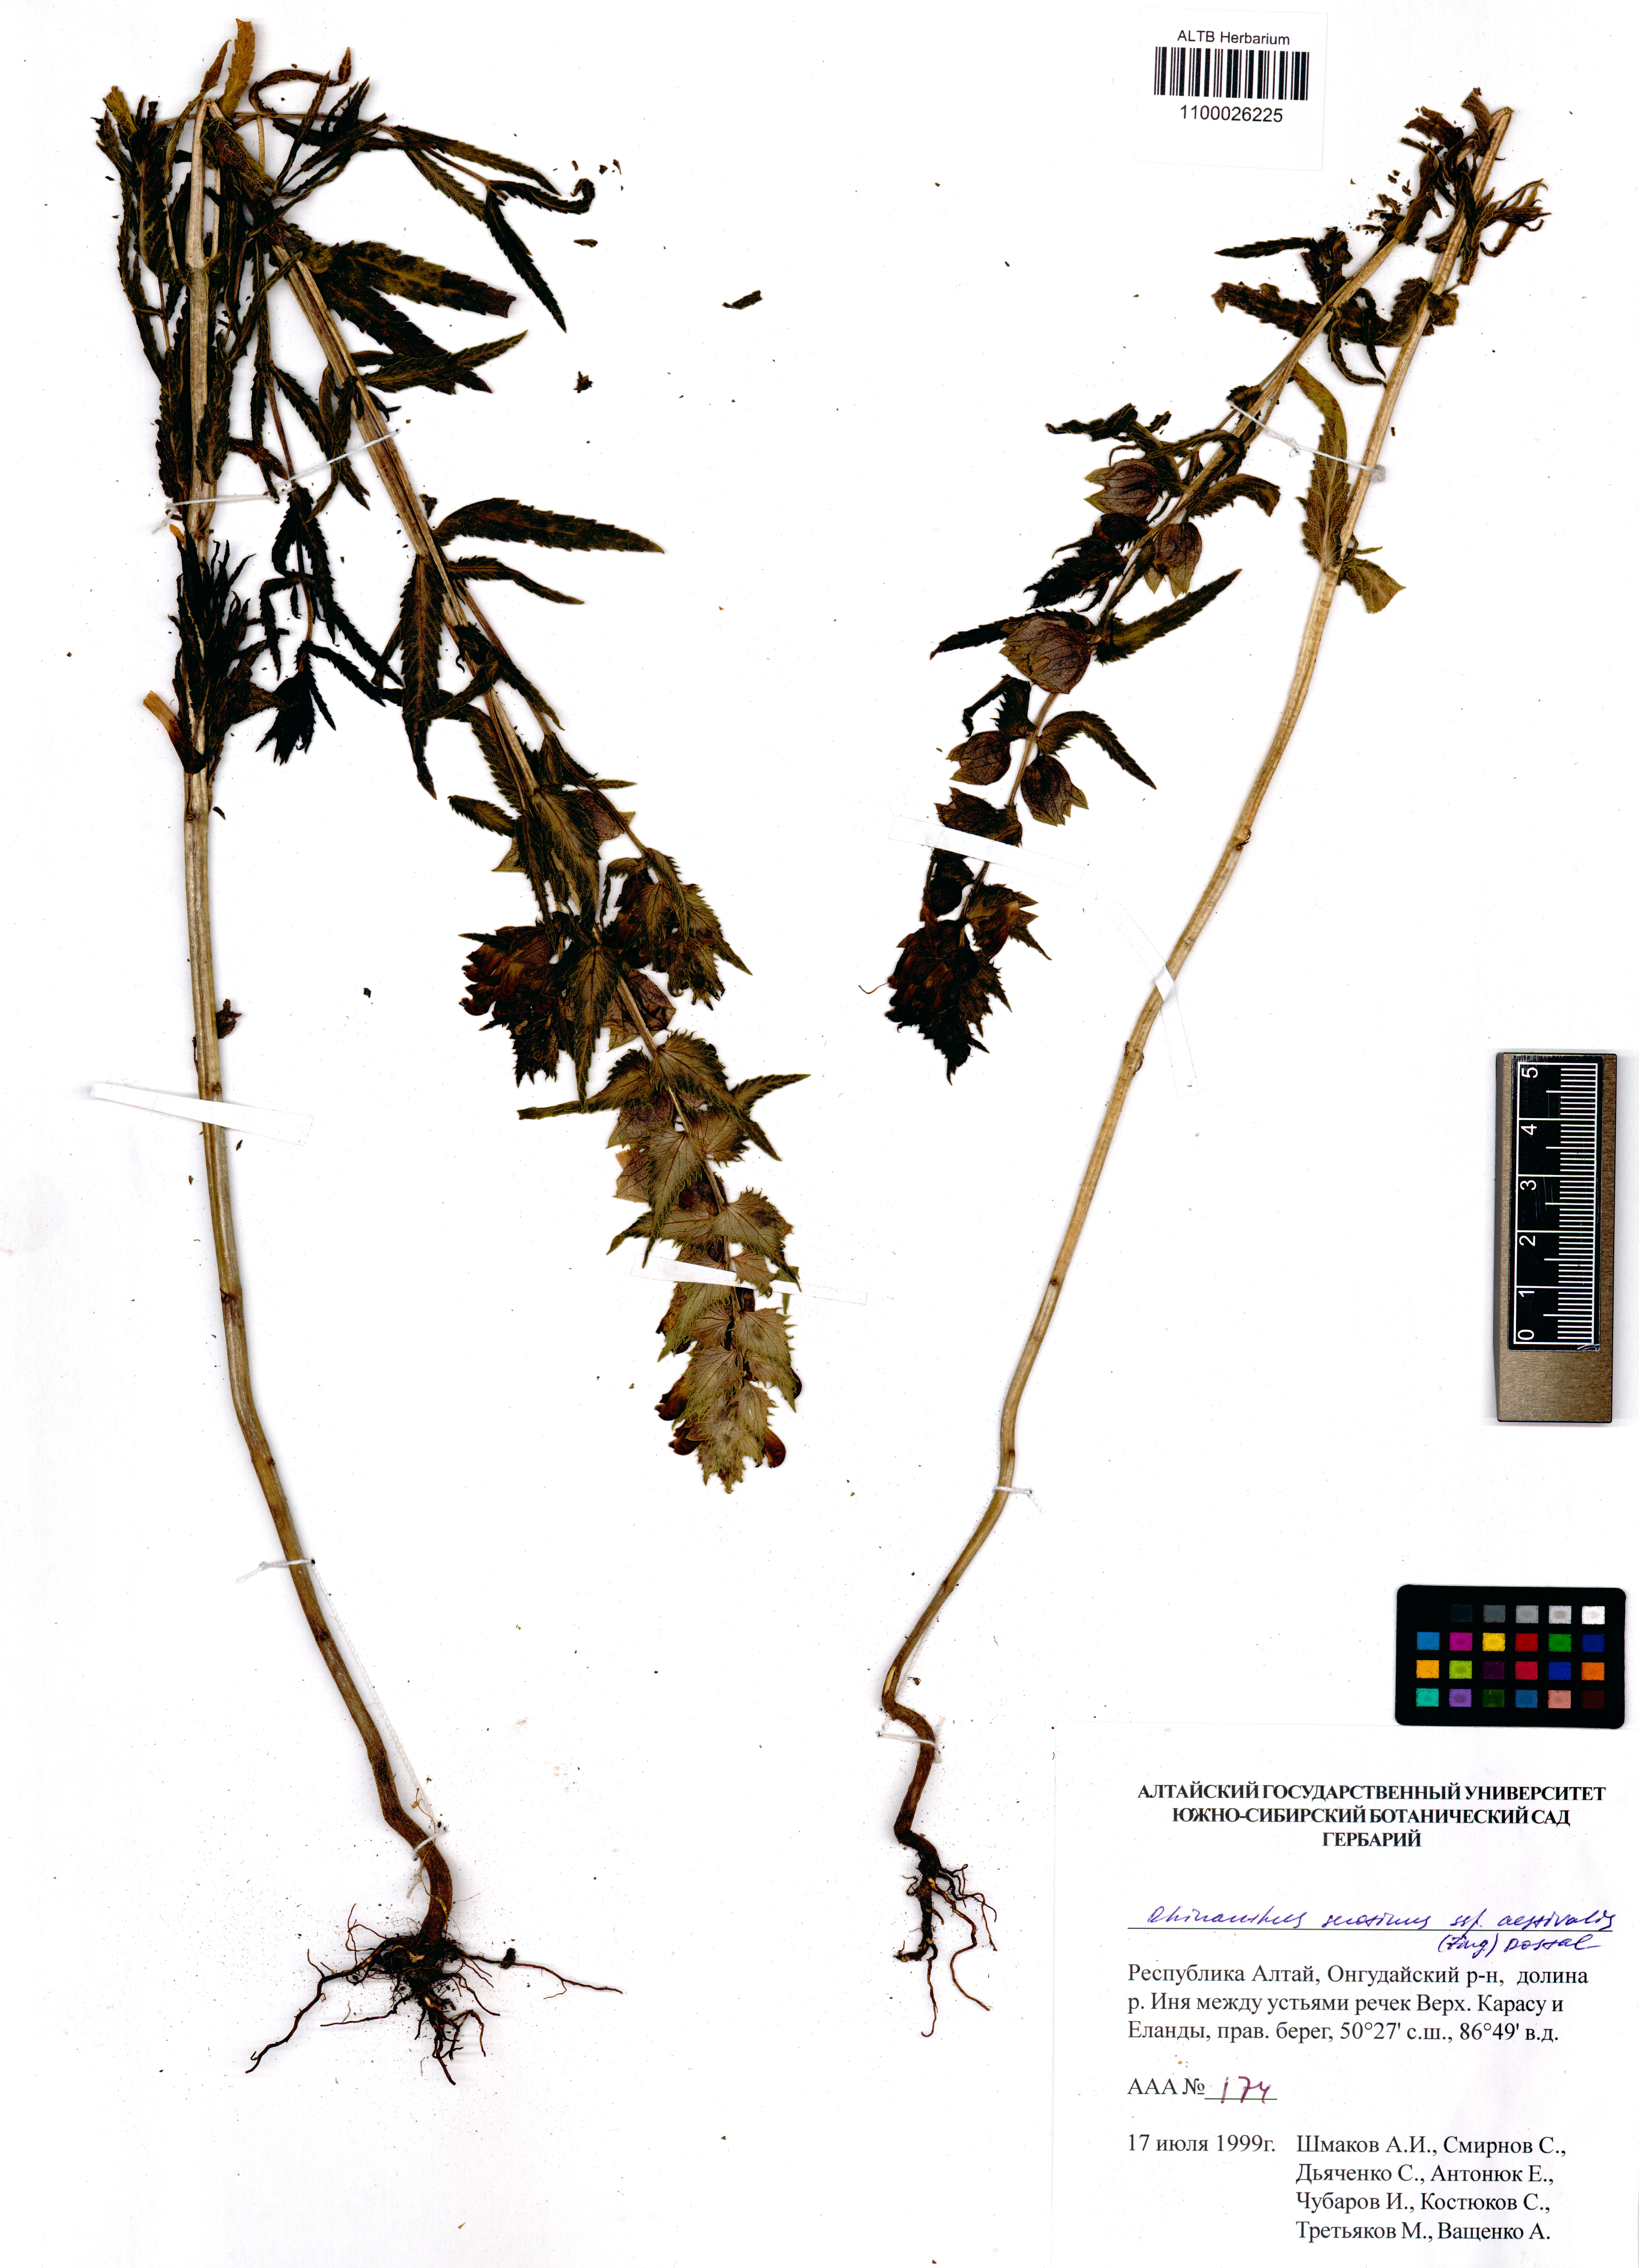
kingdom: Plantae
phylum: Tracheophyta
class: Magnoliopsida
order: Lamiales
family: Orobanchaceae
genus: Rhinanthus
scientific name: Rhinanthus serotinus
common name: Late-flowering yellow rattle
